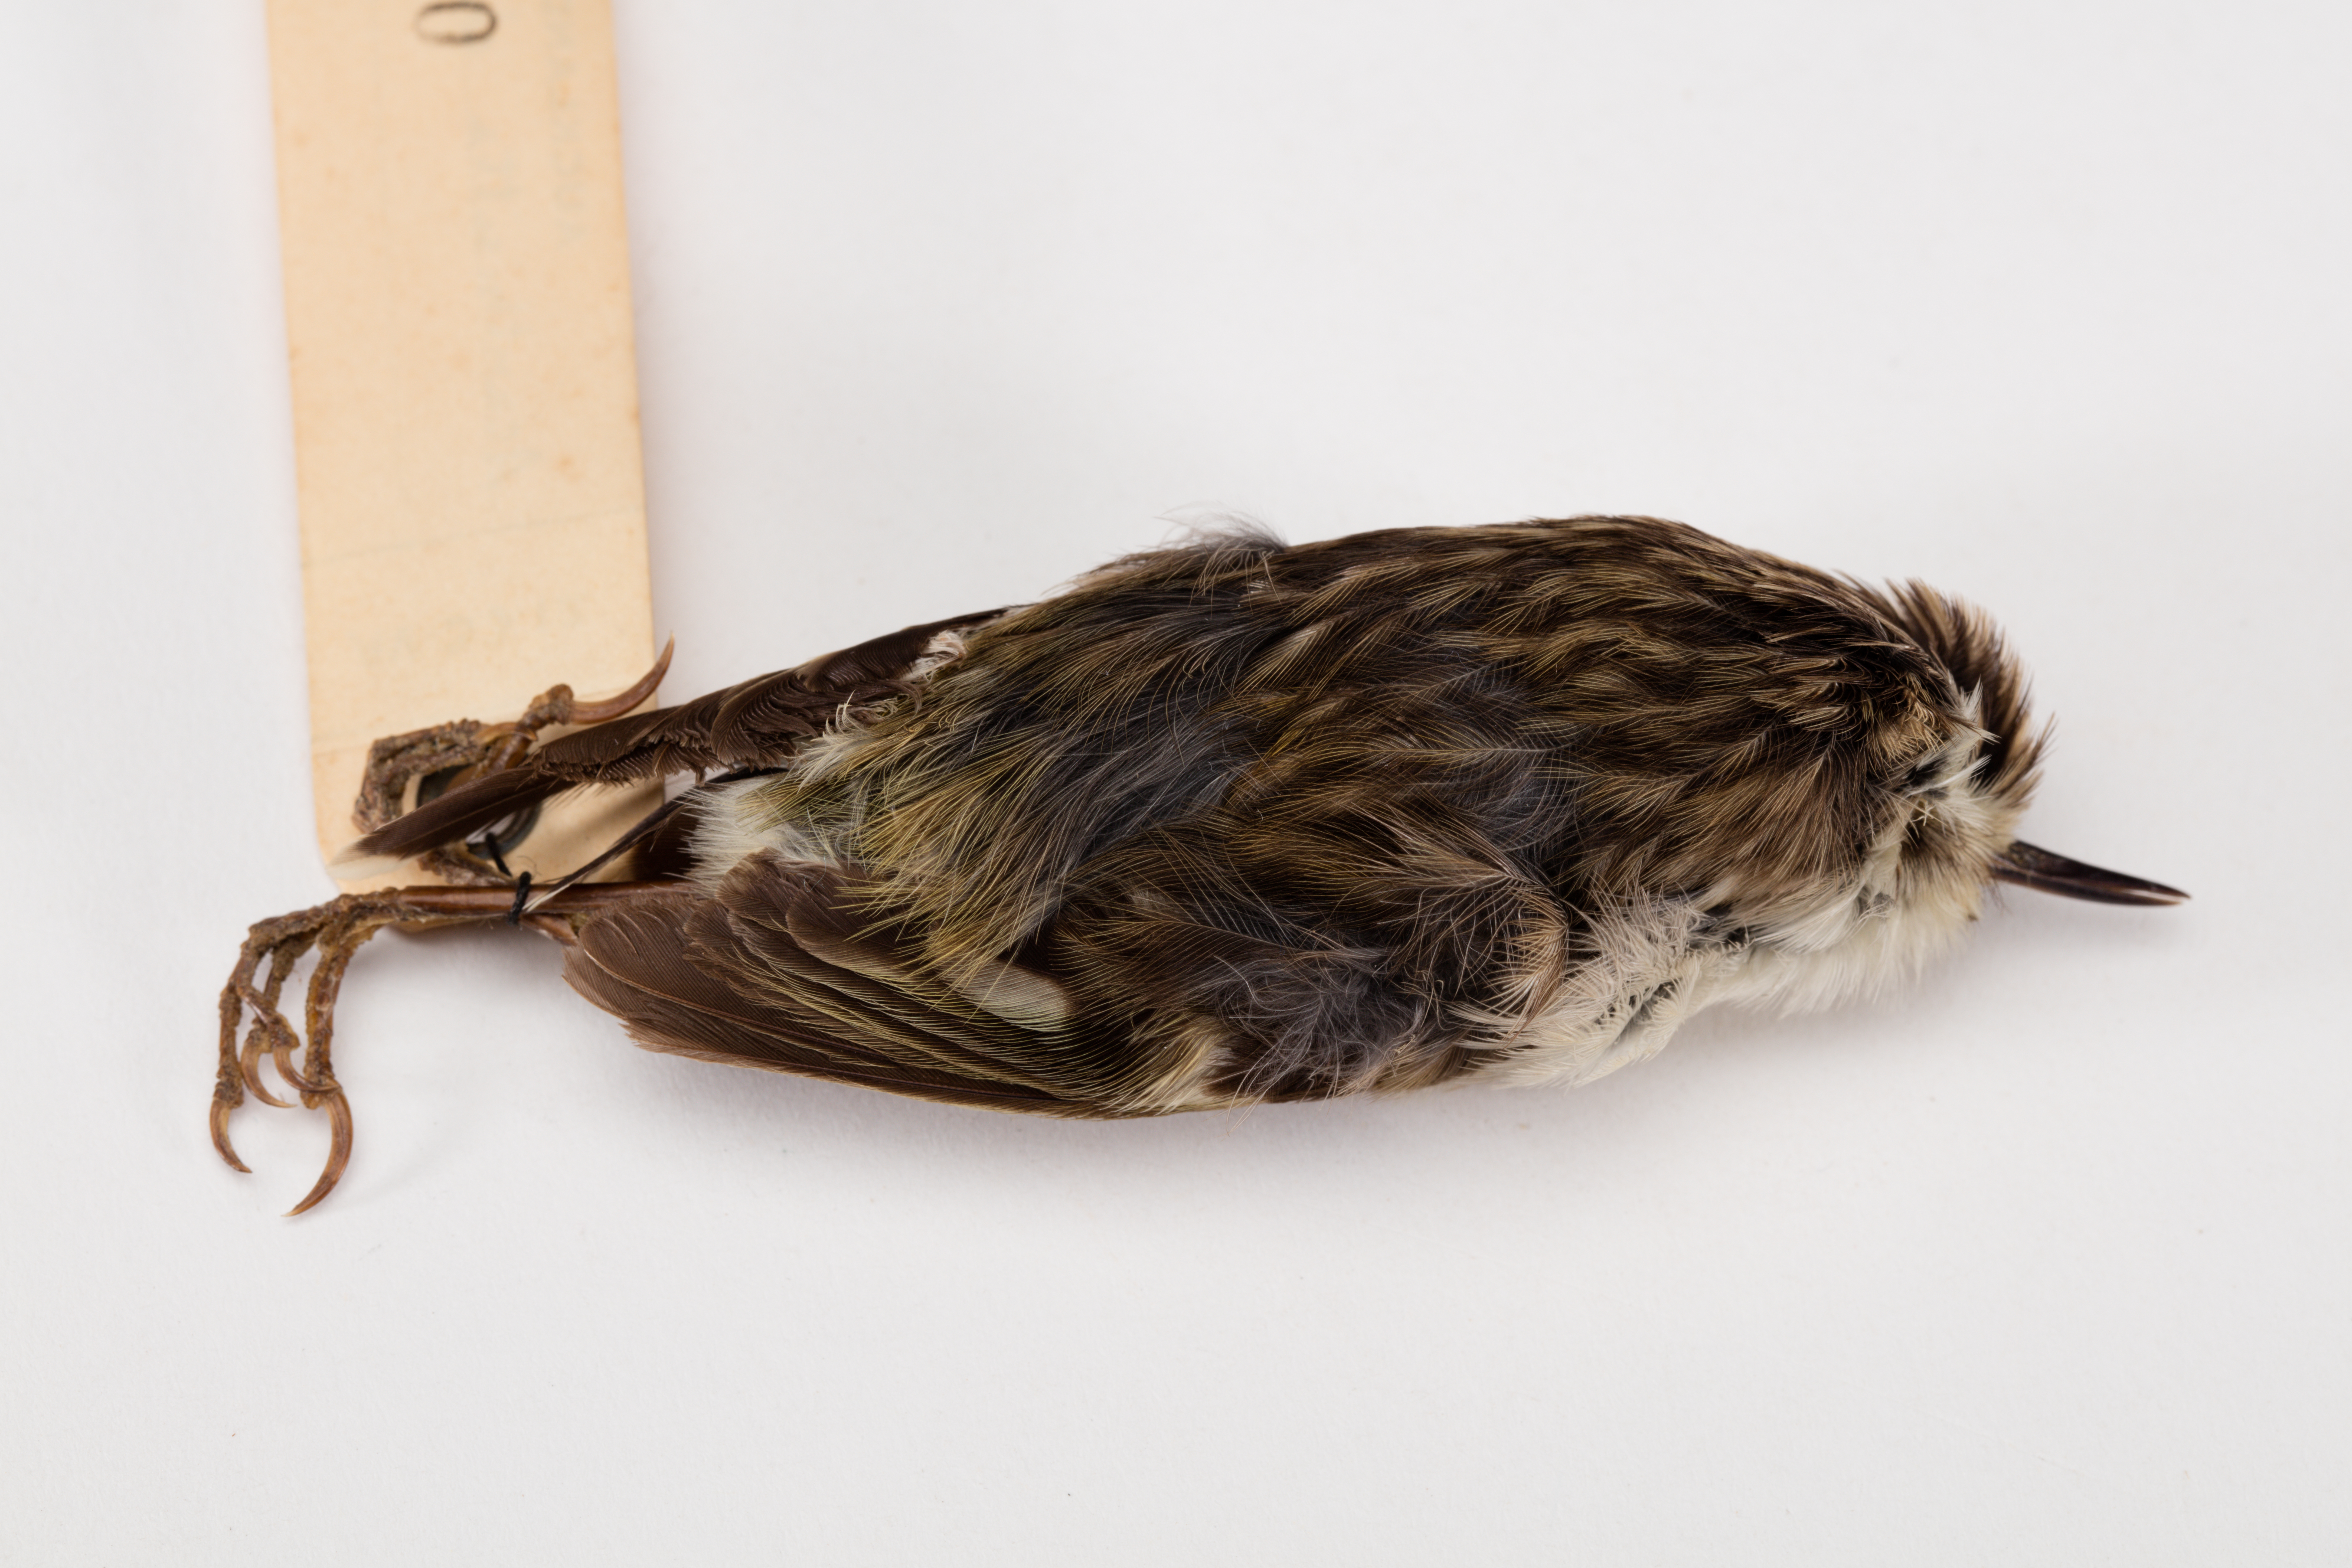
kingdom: Animalia
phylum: Chordata
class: Aves
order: Passeriformes
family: Acanthisittidae
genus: Acanthisitta
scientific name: Acanthisitta chloris
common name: Rifleman
